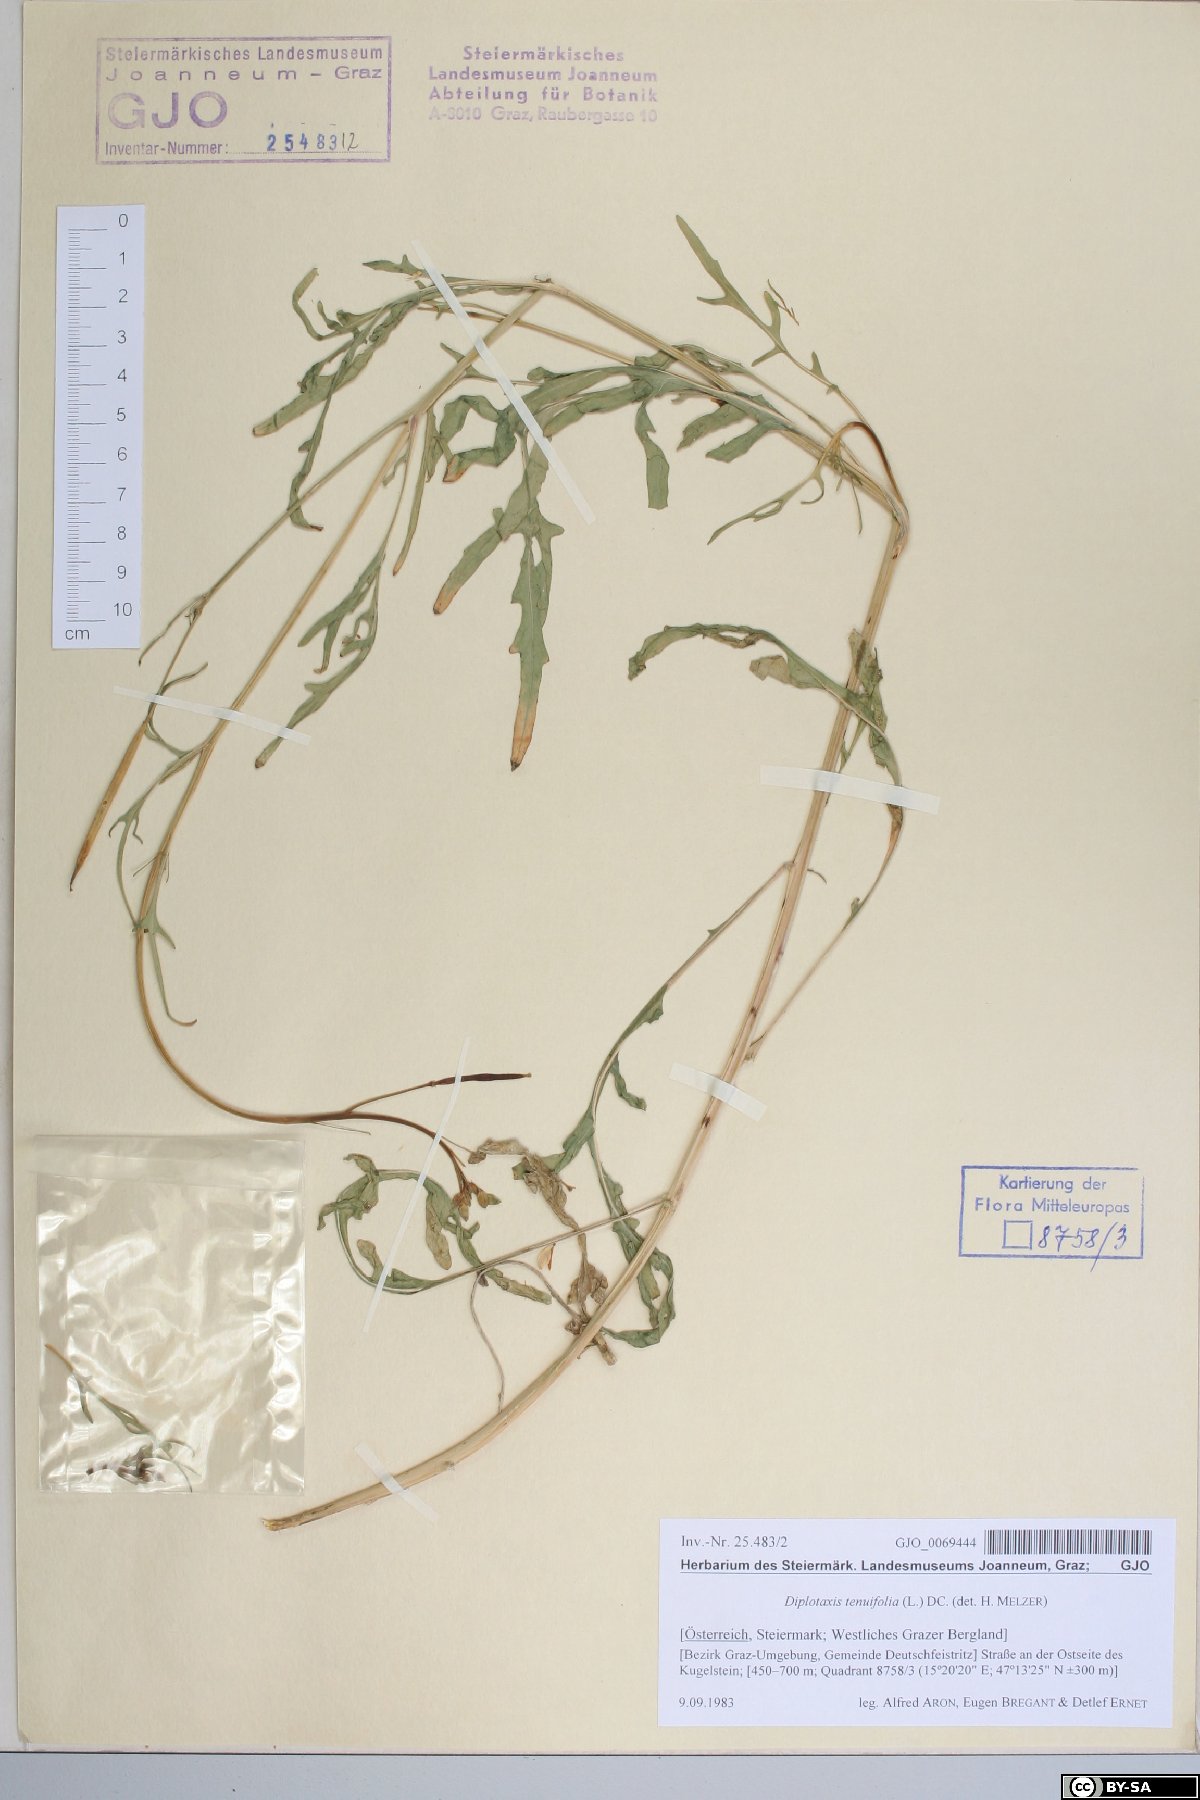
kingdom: Plantae
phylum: Tracheophyta
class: Magnoliopsida
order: Brassicales
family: Brassicaceae
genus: Diplotaxis
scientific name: Diplotaxis tenuifolia
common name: Perennial wall-rocket
